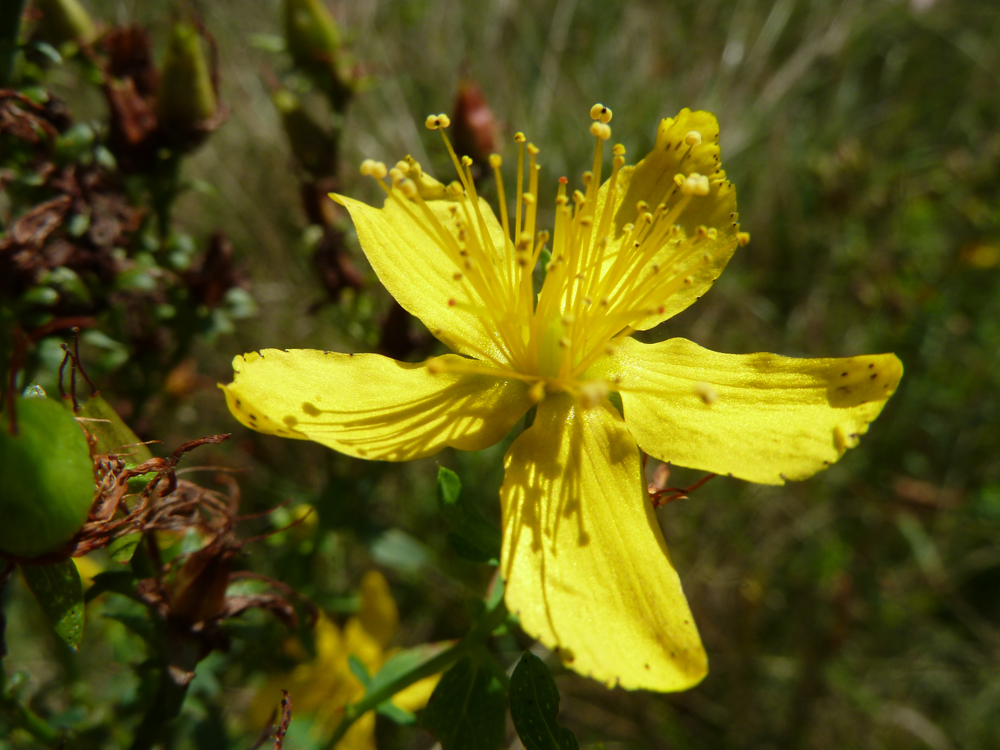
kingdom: Plantae
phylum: Tracheophyta
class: Magnoliopsida
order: Malpighiales
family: Hypericaceae
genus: Hypericum
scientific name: Hypericum perforatum
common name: Common st. johnswort
